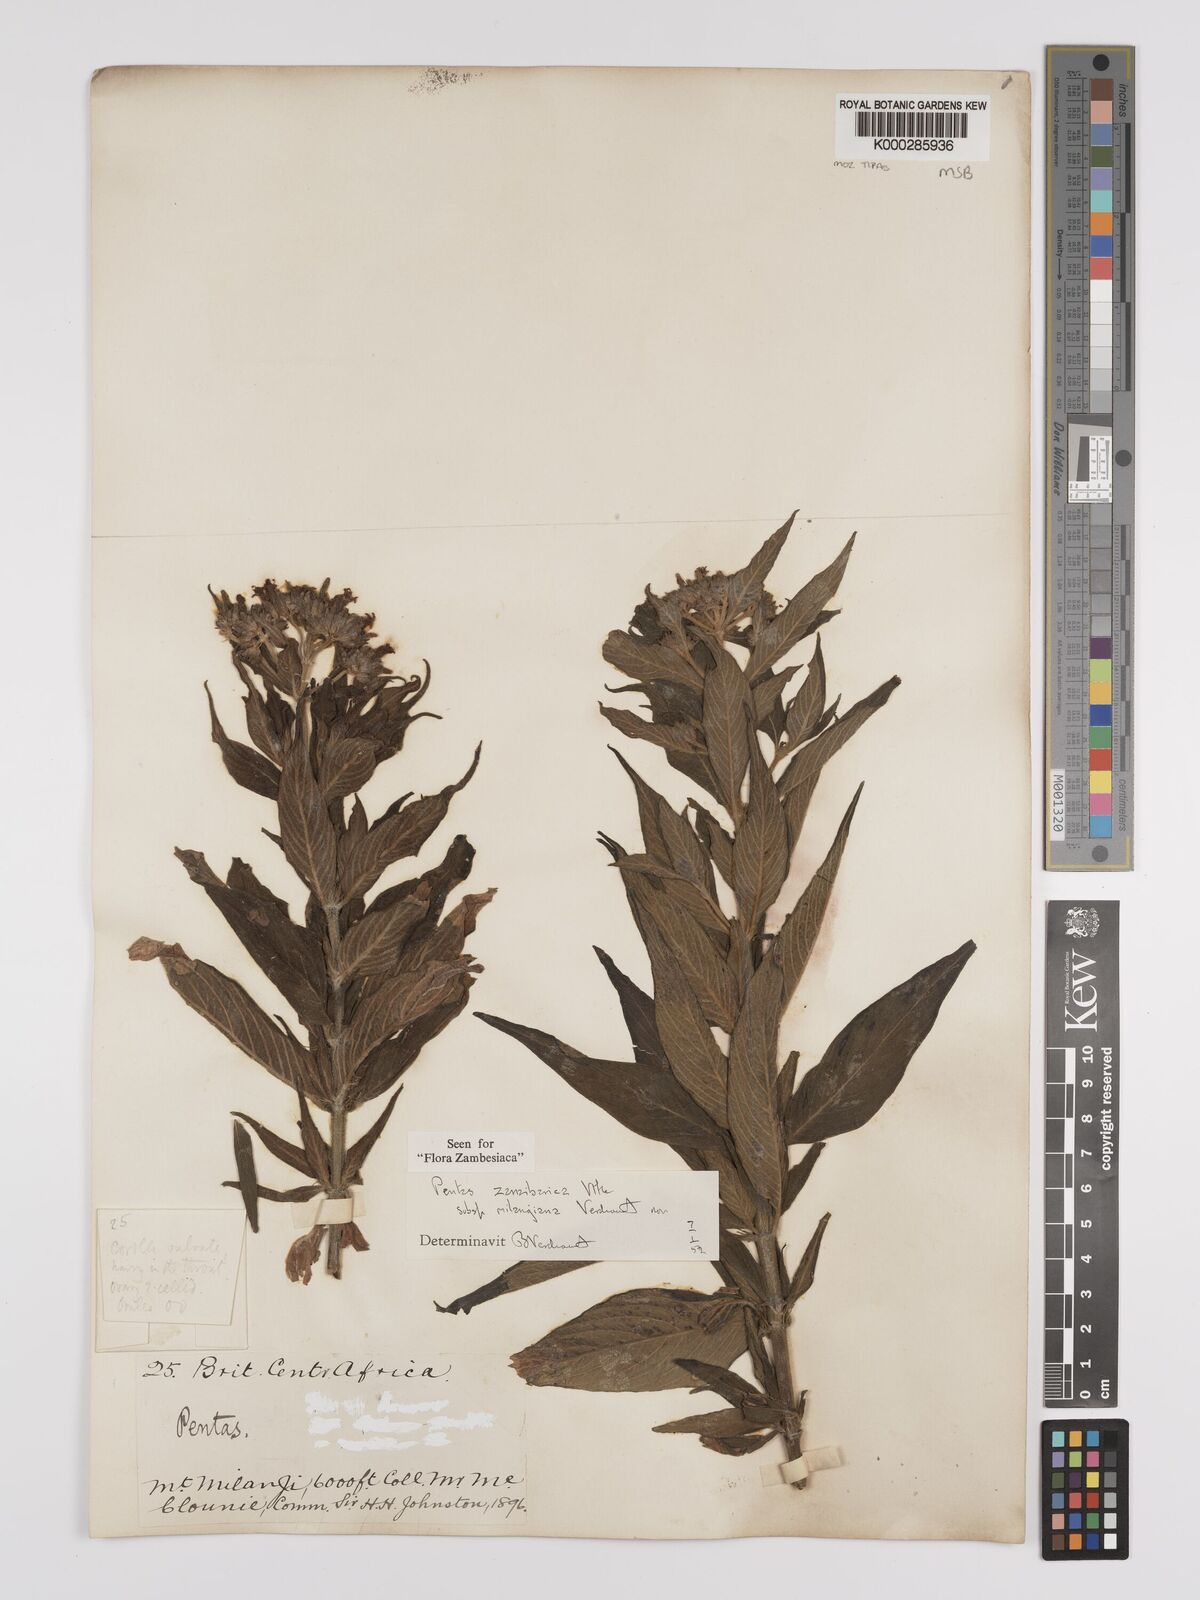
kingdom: Plantae
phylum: Tracheophyta
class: Magnoliopsida
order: Gentianales
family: Rubiaceae
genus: Pentas
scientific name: Pentas zanzibarica
